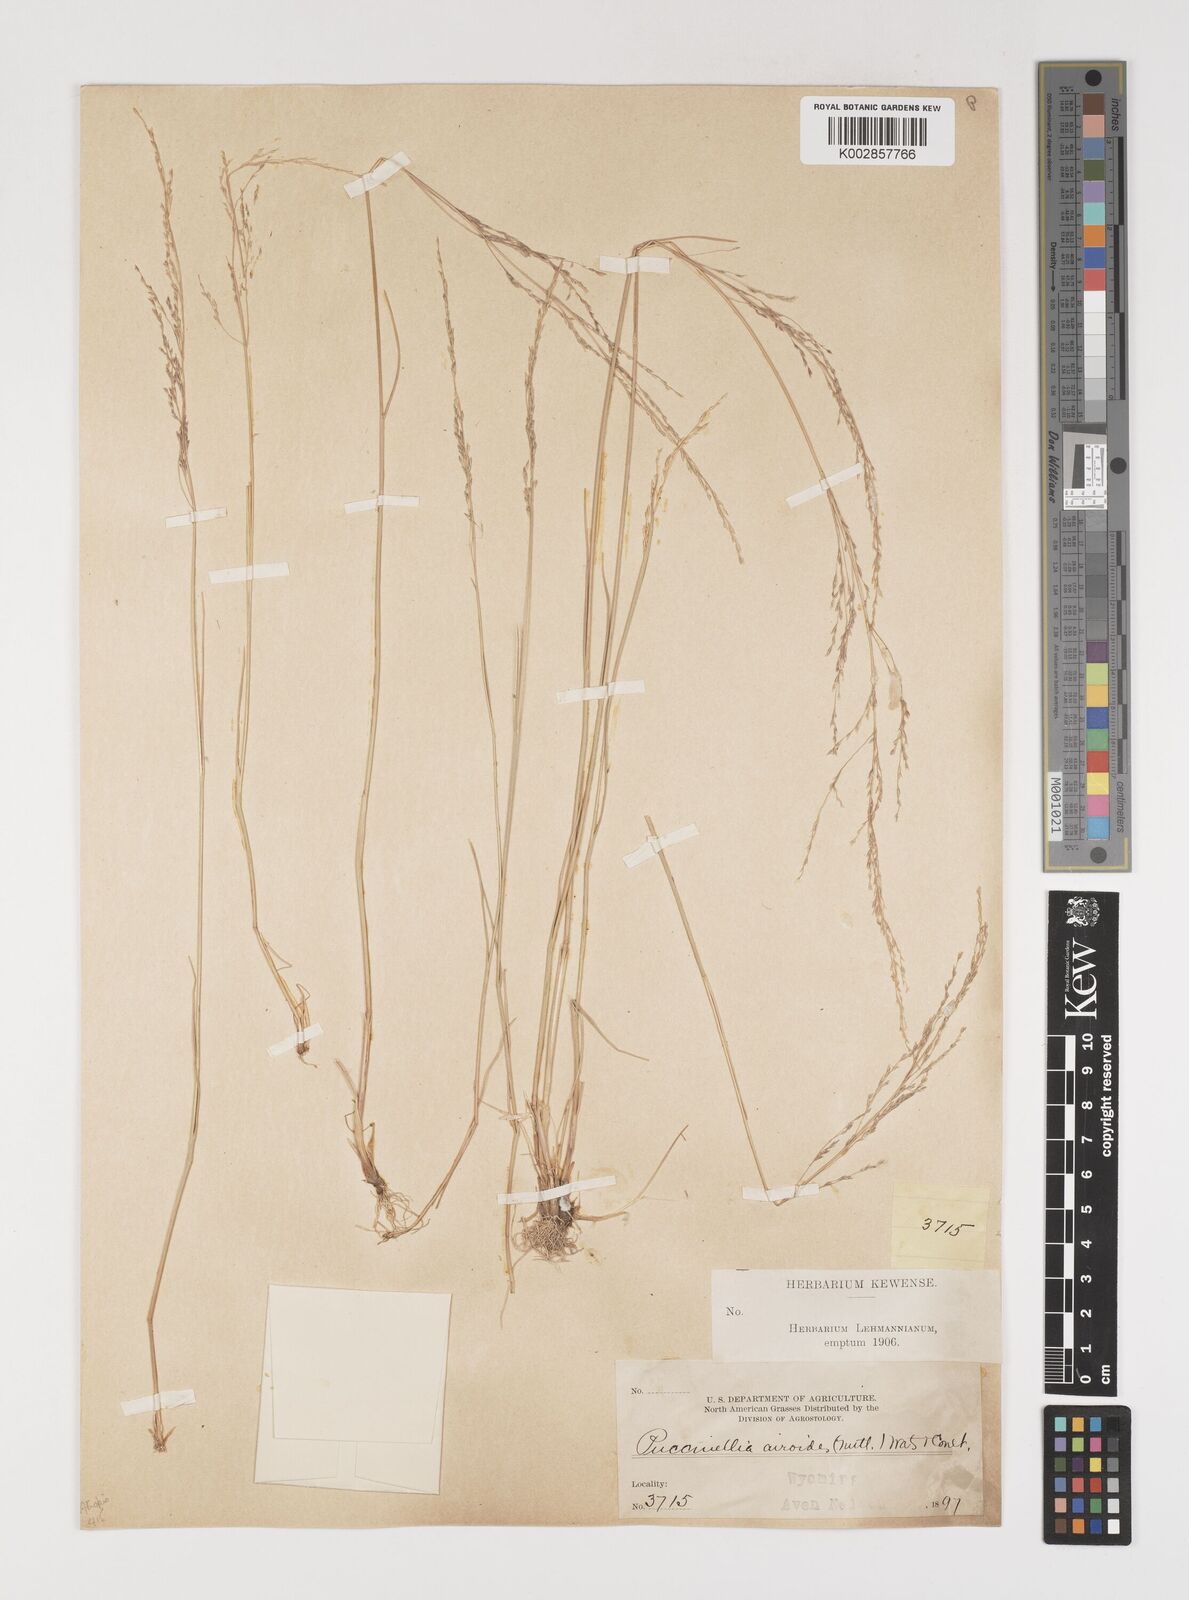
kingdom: Plantae
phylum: Tracheophyta
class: Liliopsida
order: Poales
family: Poaceae
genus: Puccinellia
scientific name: Puccinellia nuttalliana
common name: Nuttall's alkali grass
